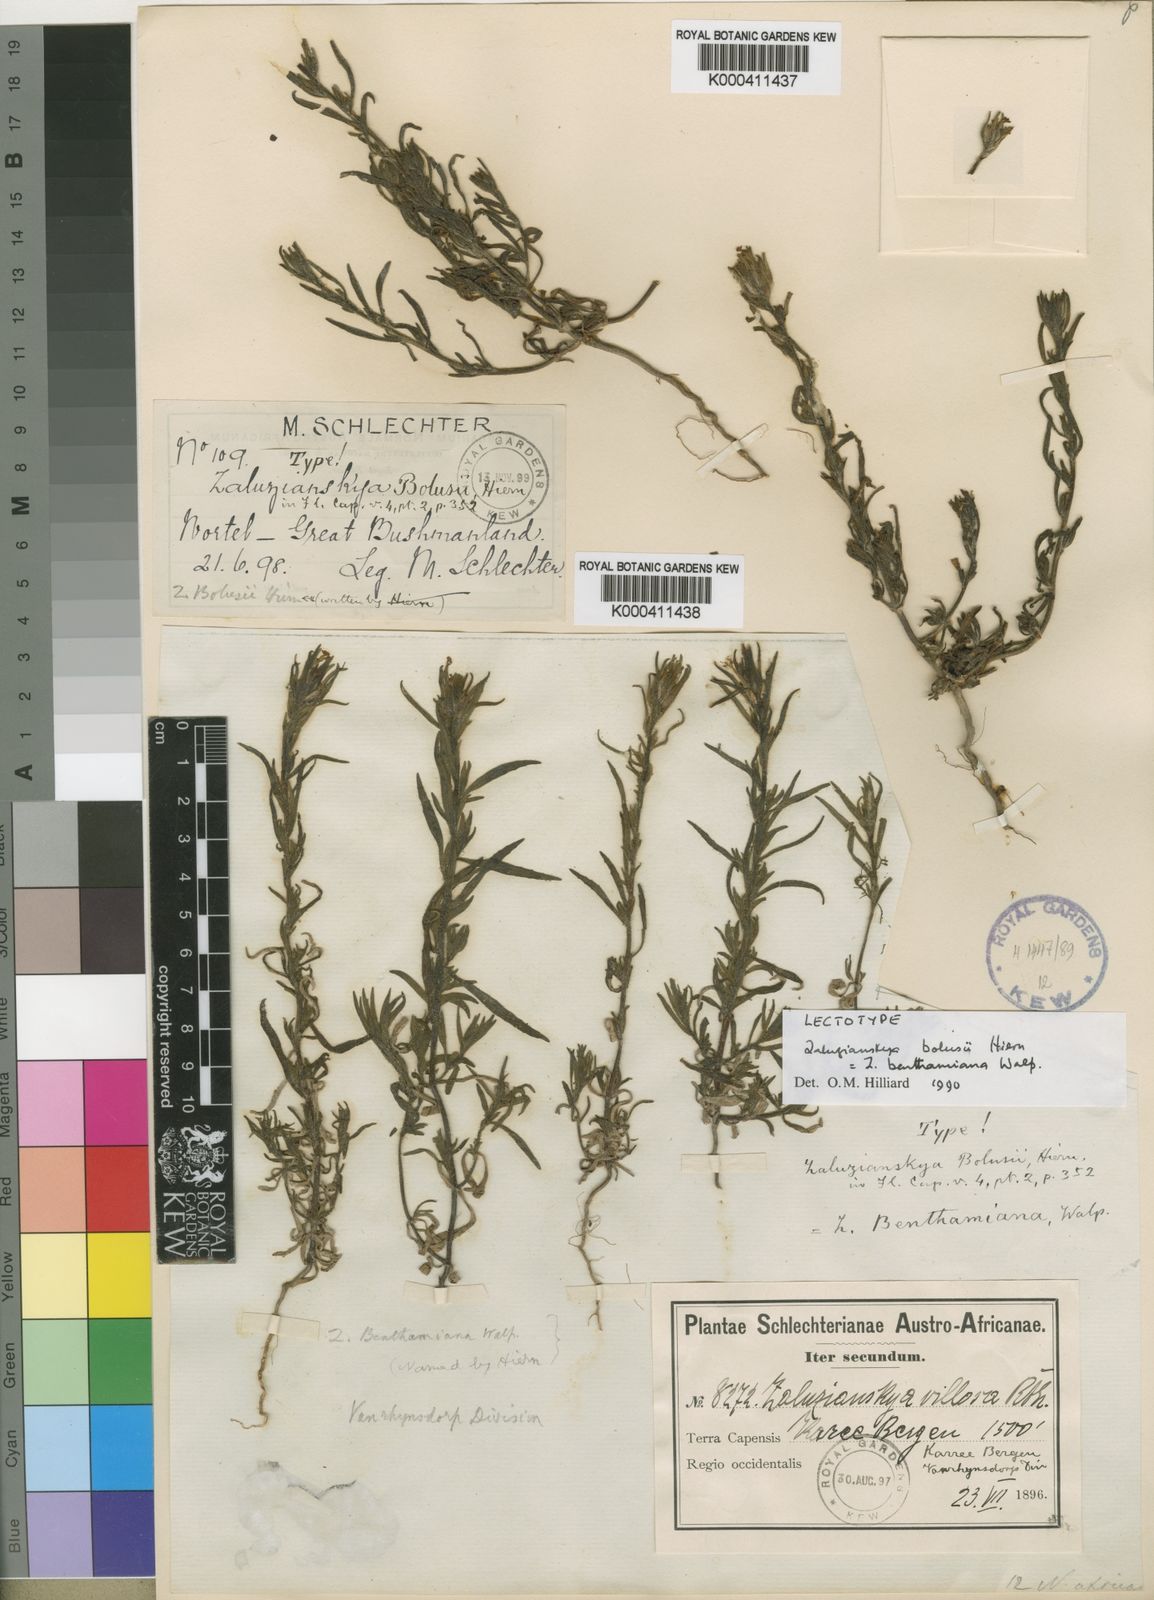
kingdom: Plantae
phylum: Tracheophyta
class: Magnoliopsida
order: Lamiales
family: Scrophulariaceae
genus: Zaluzianskya
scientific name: Zaluzianskya benthamiana
